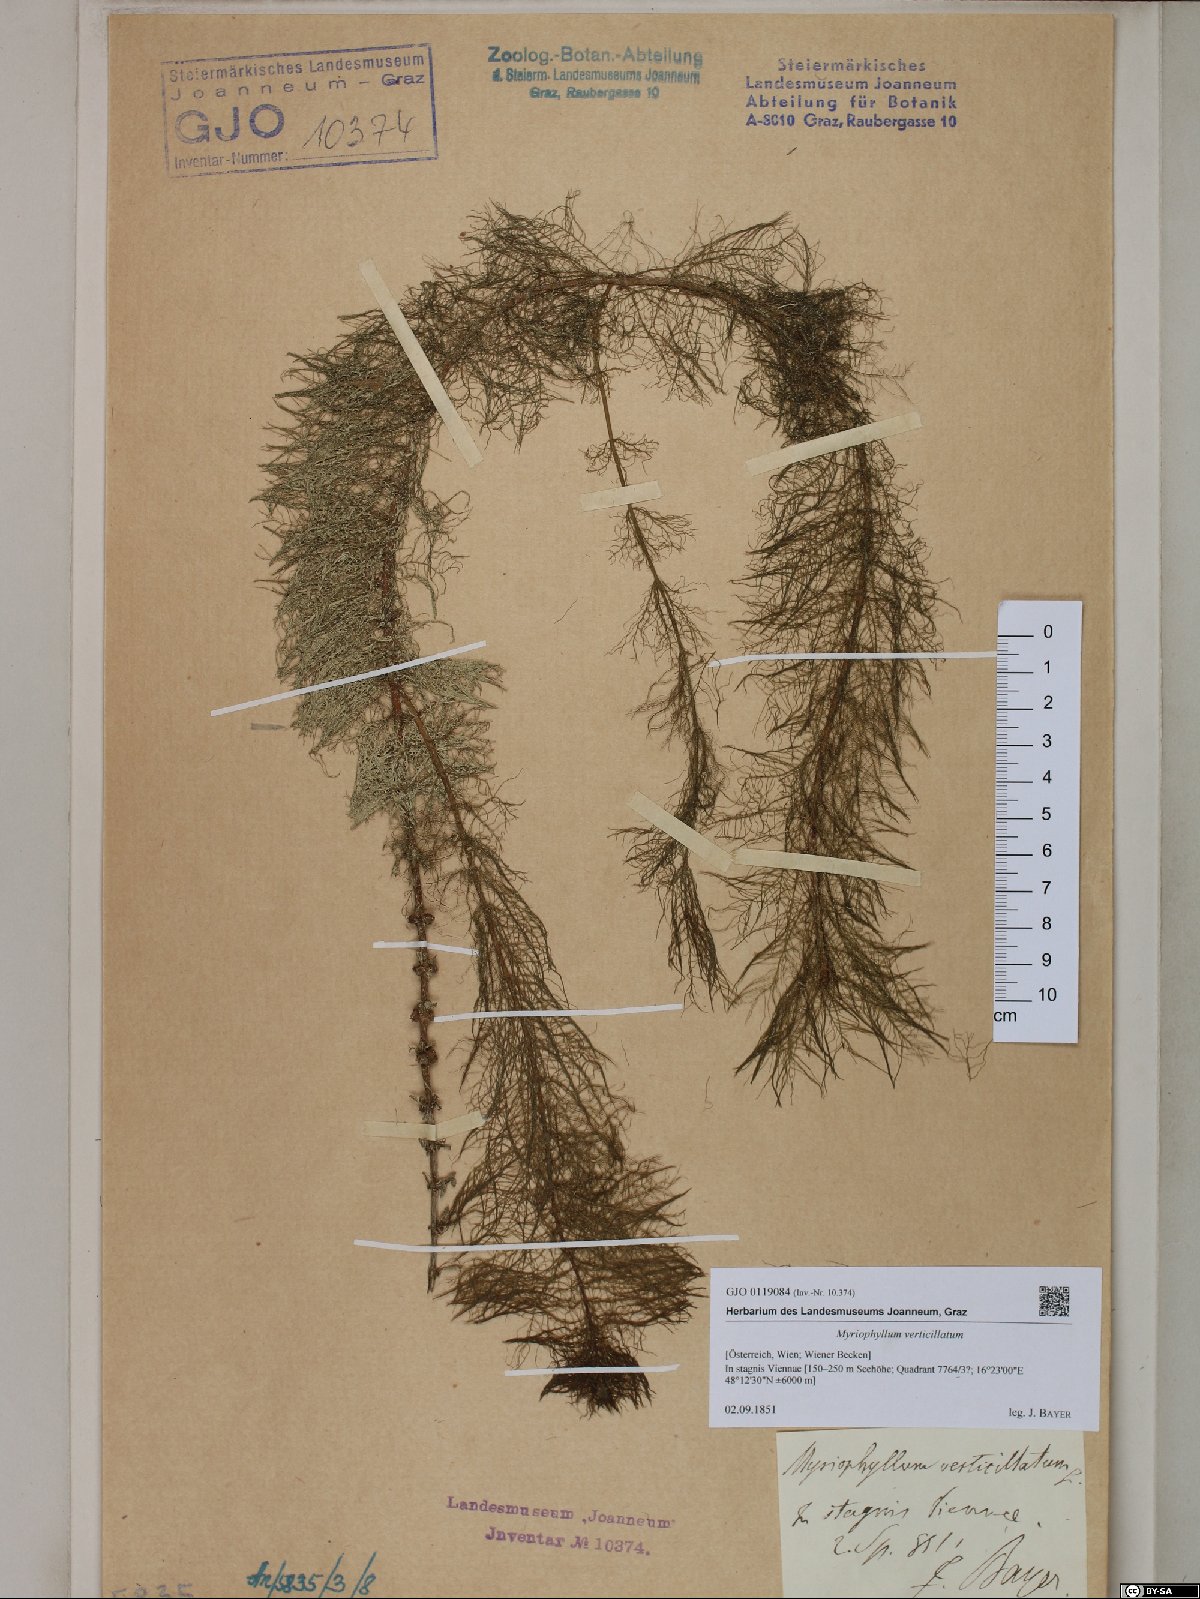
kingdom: Plantae
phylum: Tracheophyta
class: Magnoliopsida
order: Saxifragales
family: Haloragaceae
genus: Myriophyllum
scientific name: Myriophyllum verticillatum
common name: Whorled water-milfoil
